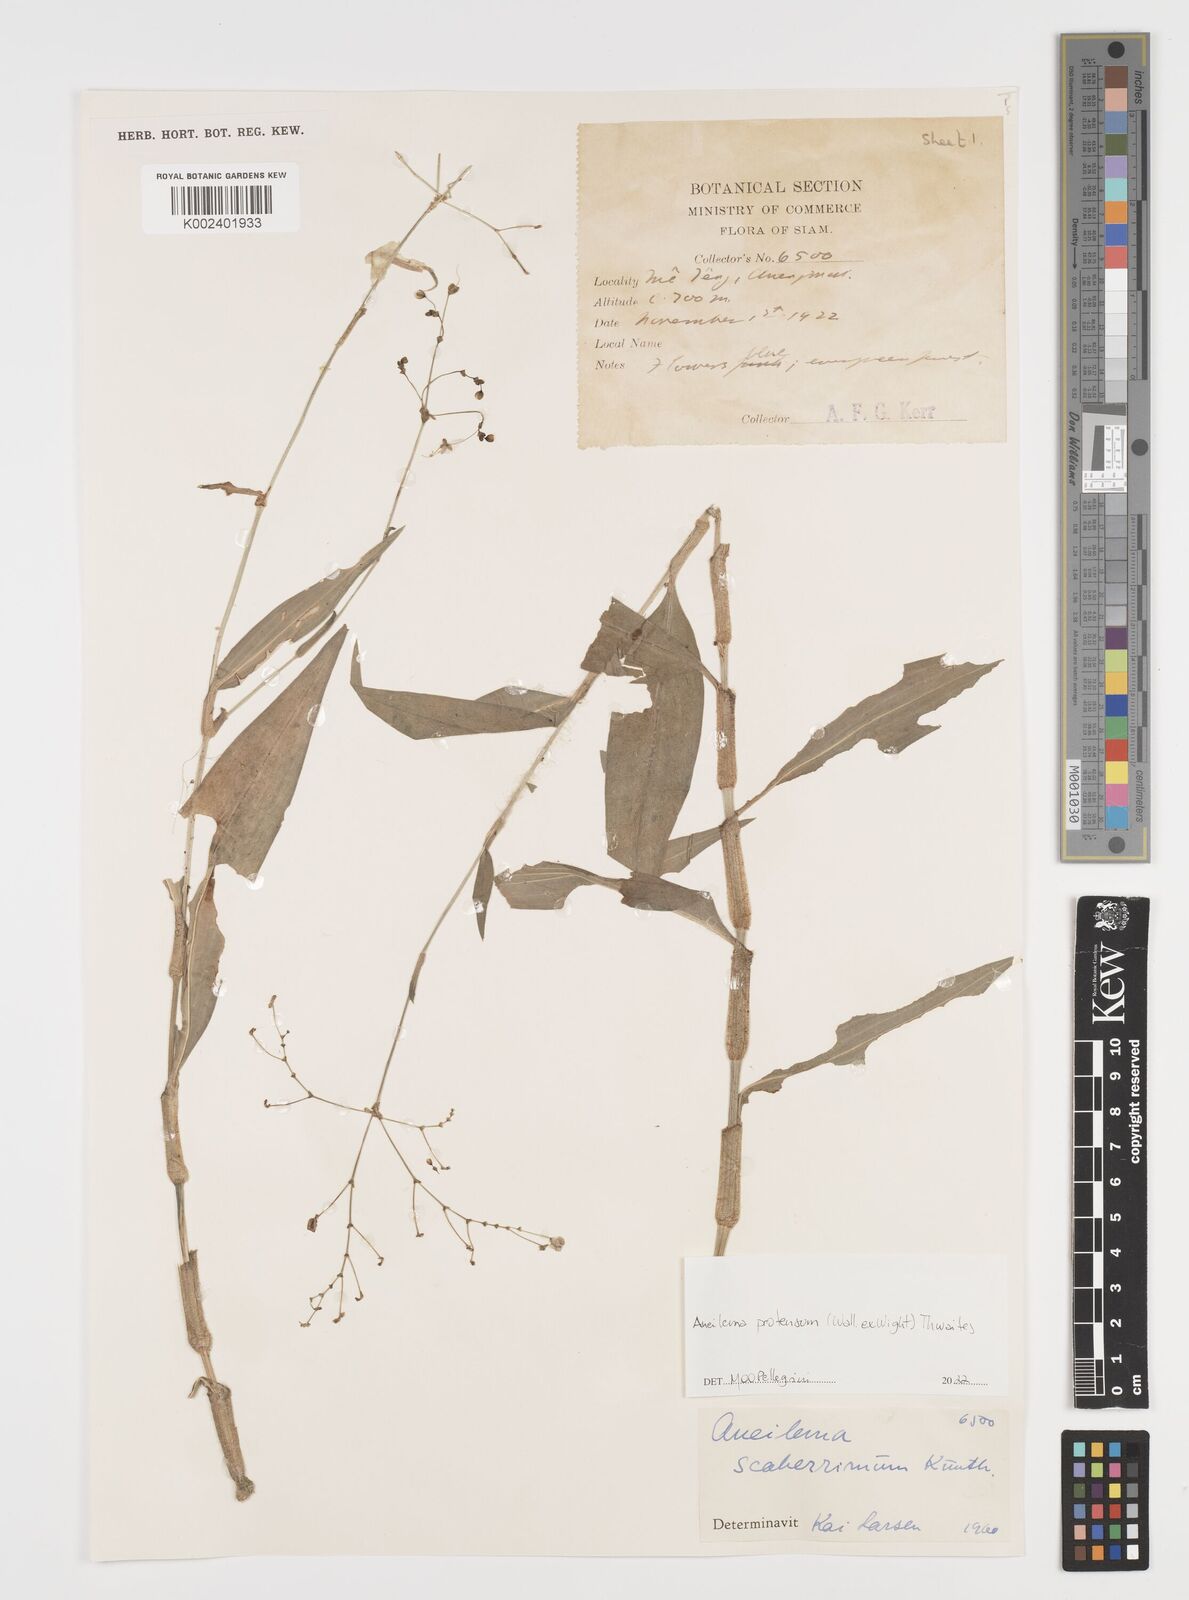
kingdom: Plantae
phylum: Tracheophyta
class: Liliopsida
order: Commelinales
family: Commelinaceae
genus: Rhopalephora
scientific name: Rhopalephora
